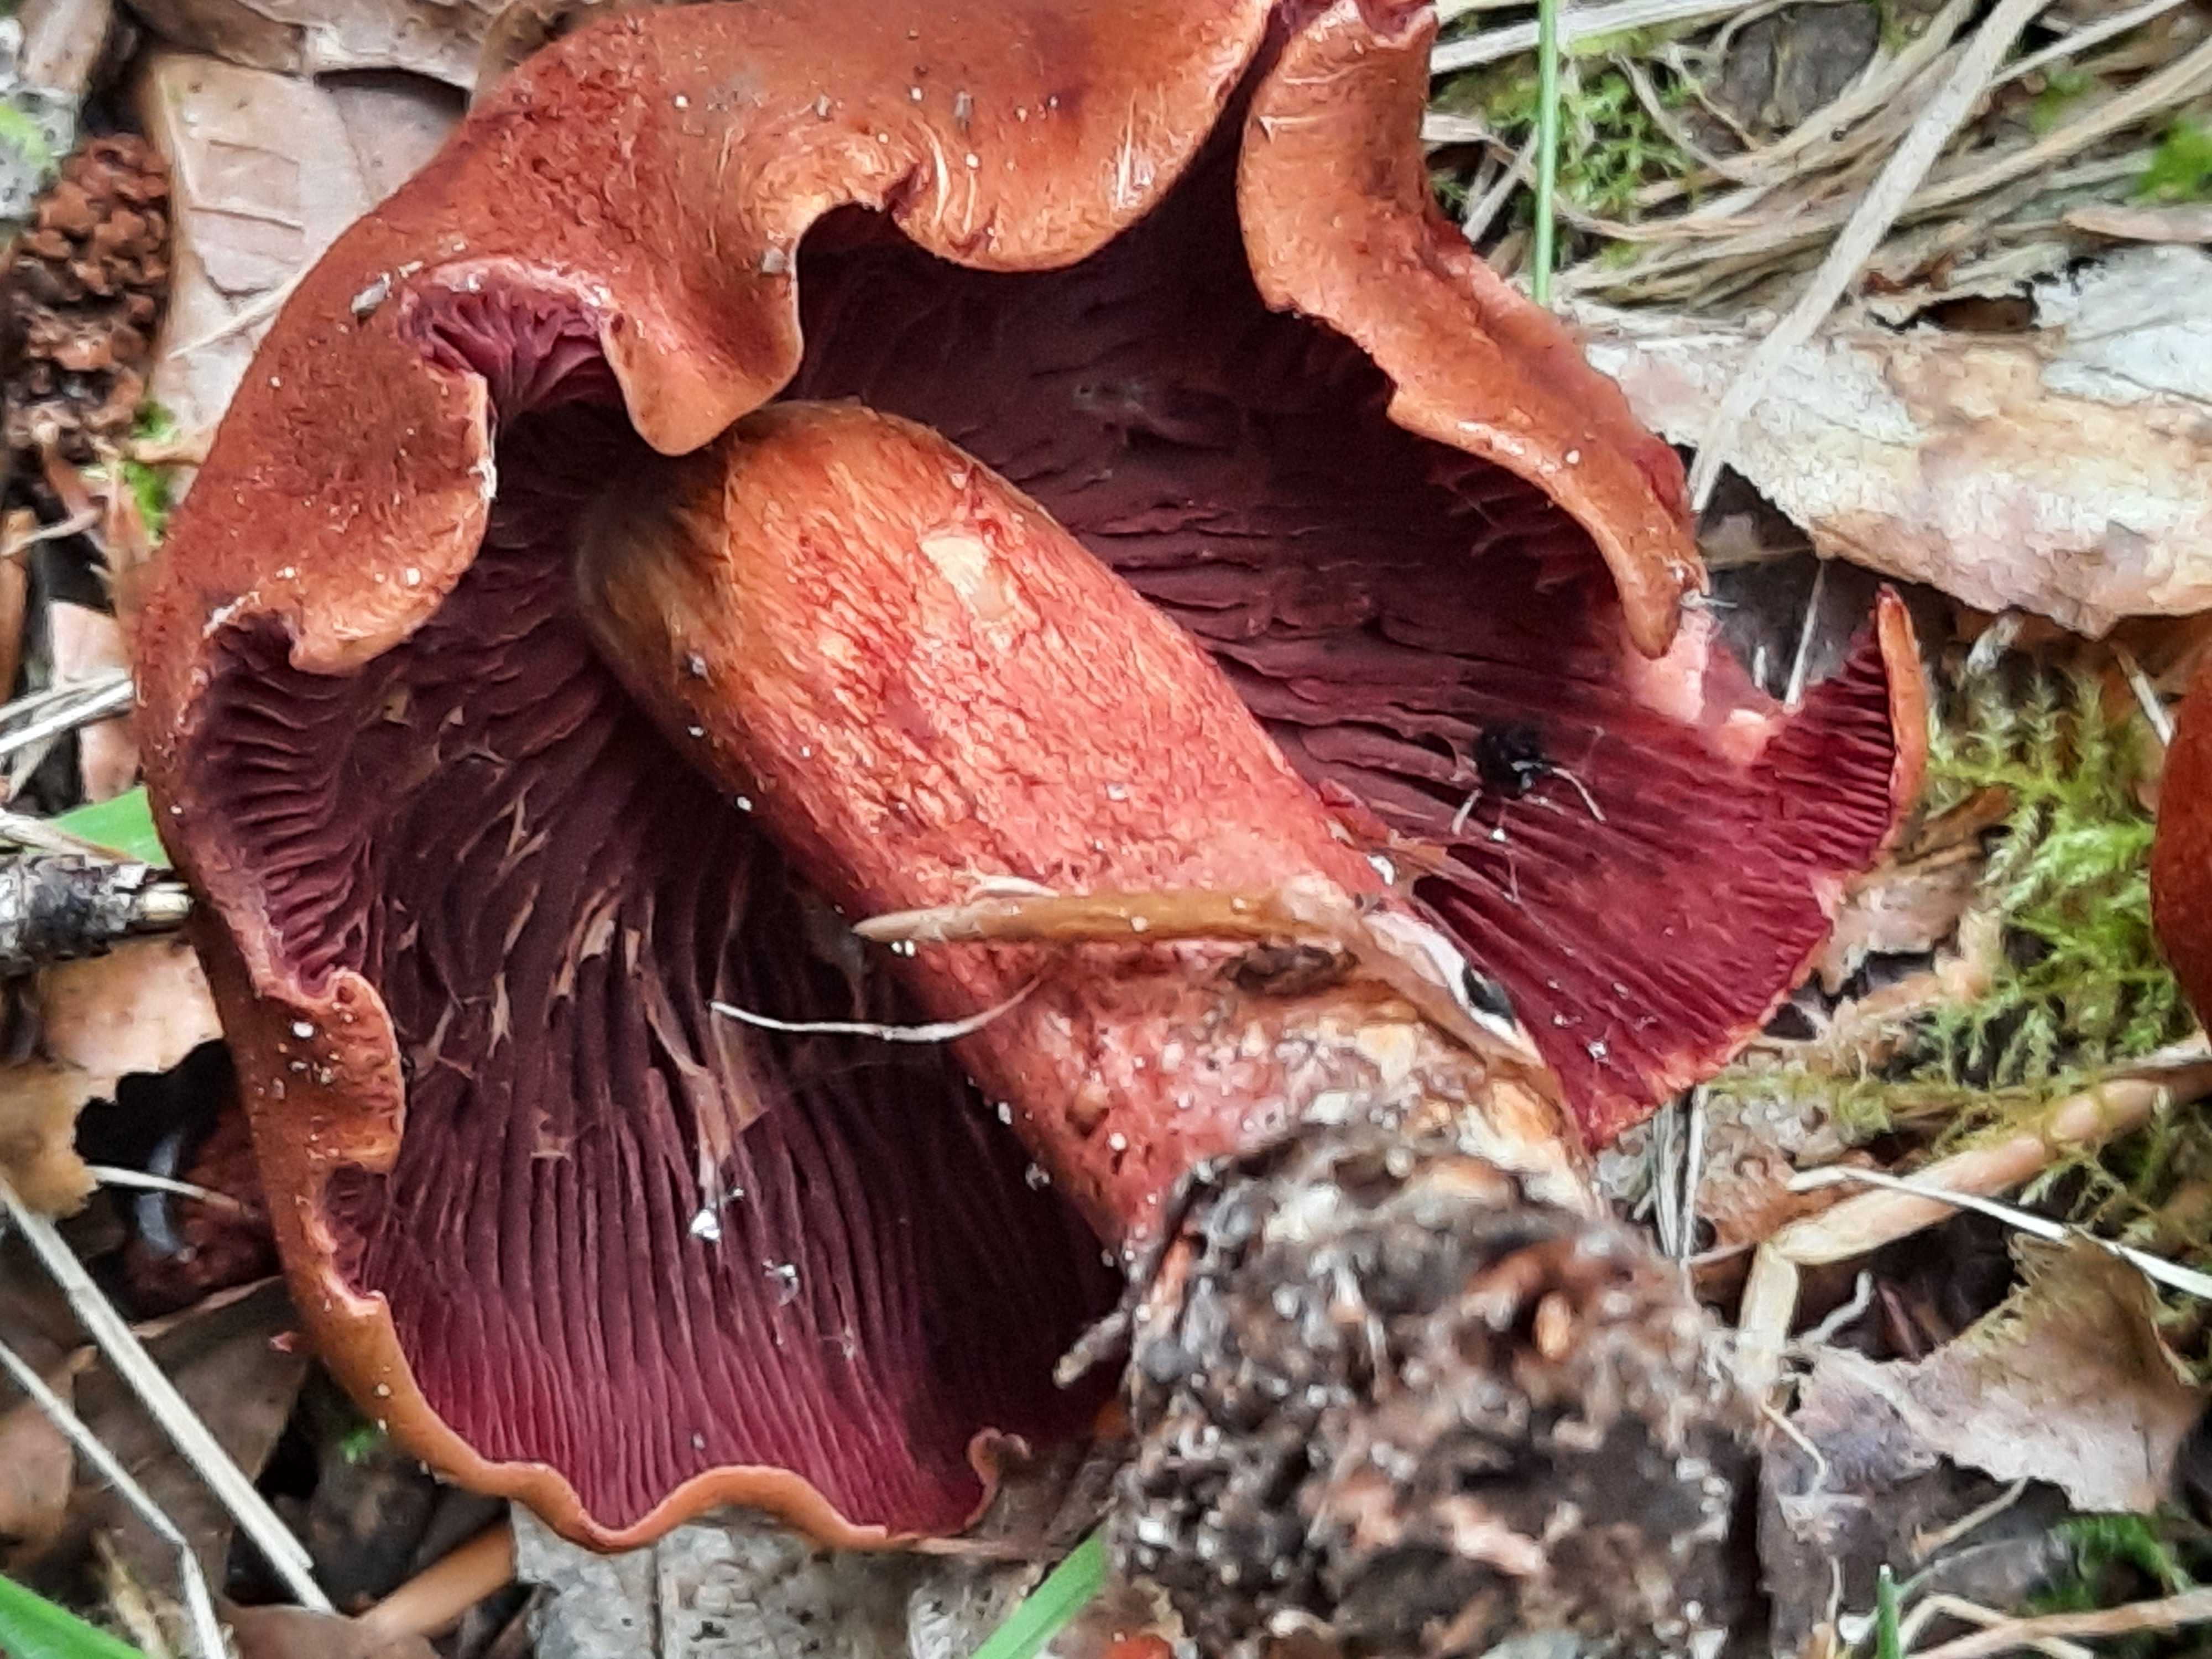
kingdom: Fungi
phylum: Basidiomycota
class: Agaricomycetes
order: Agaricales
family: Cortinariaceae
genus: Cortinarius
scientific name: Cortinarius purpureus
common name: brunrød slørhat
